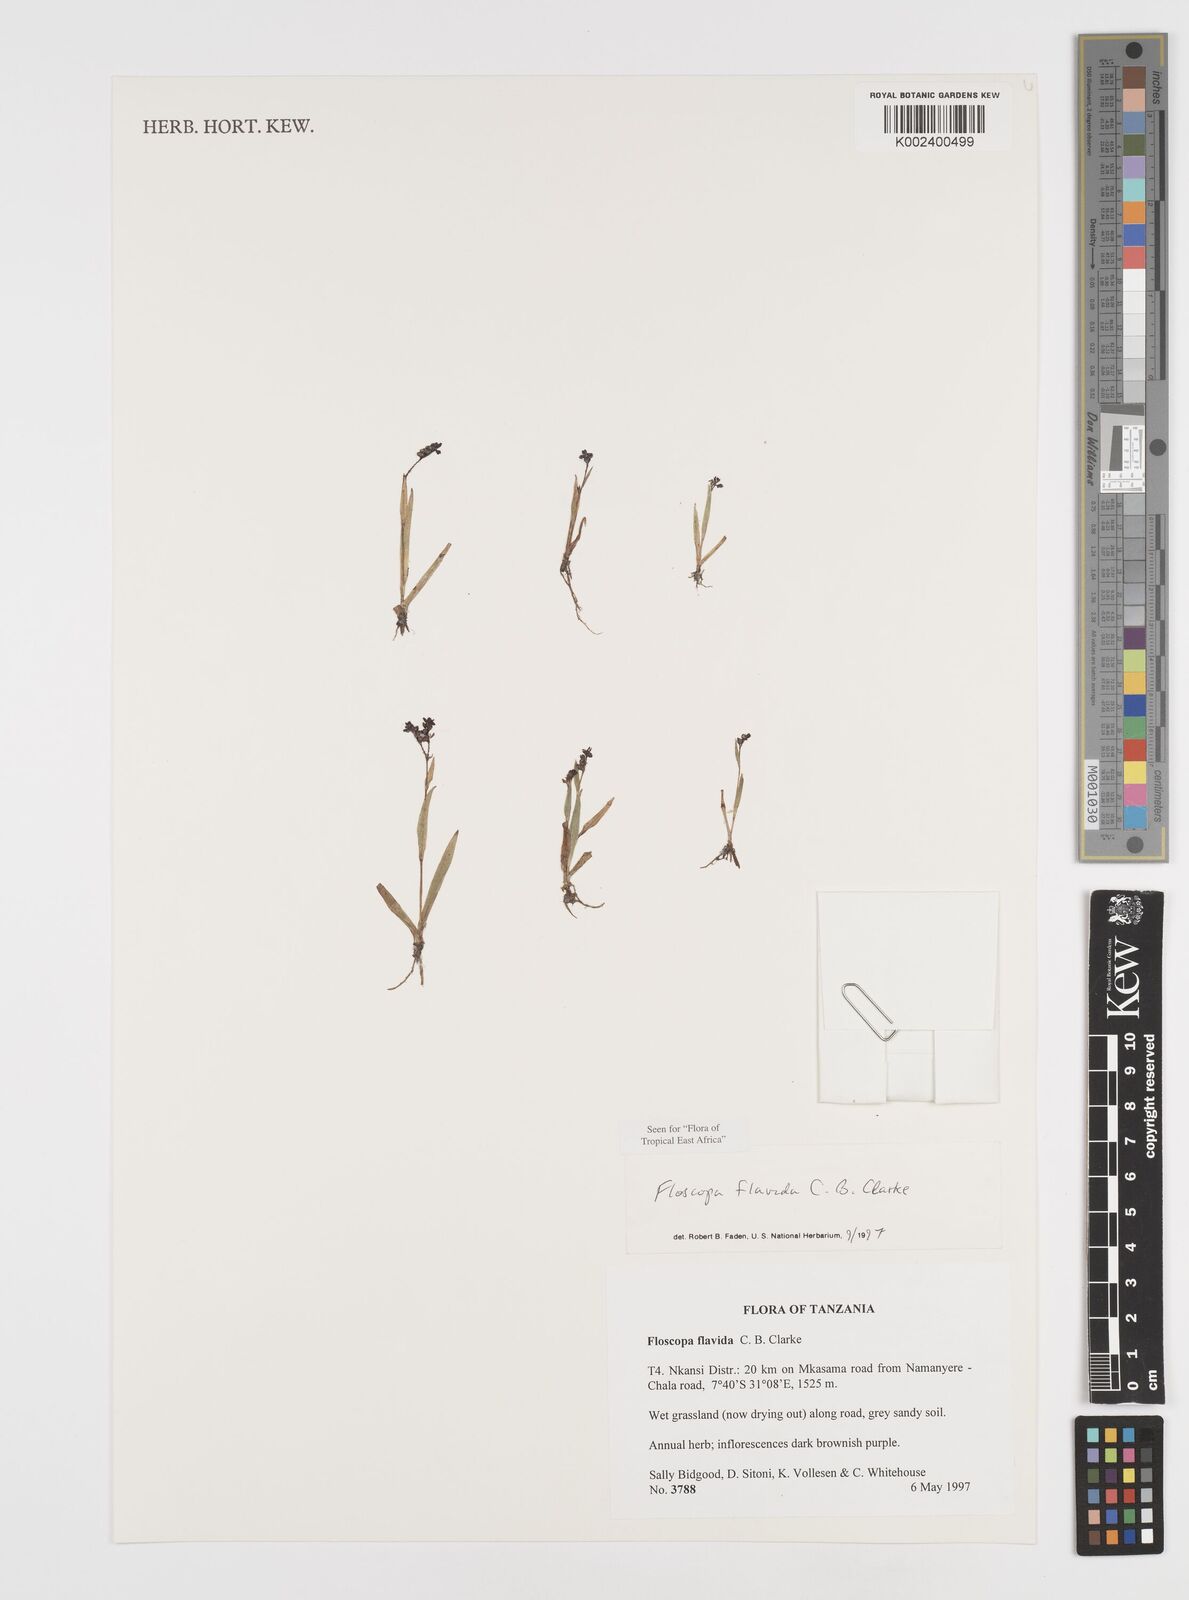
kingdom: Plantae
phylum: Tracheophyta
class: Liliopsida
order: Commelinales
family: Commelinaceae
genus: Floscopa
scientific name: Floscopa flavida
